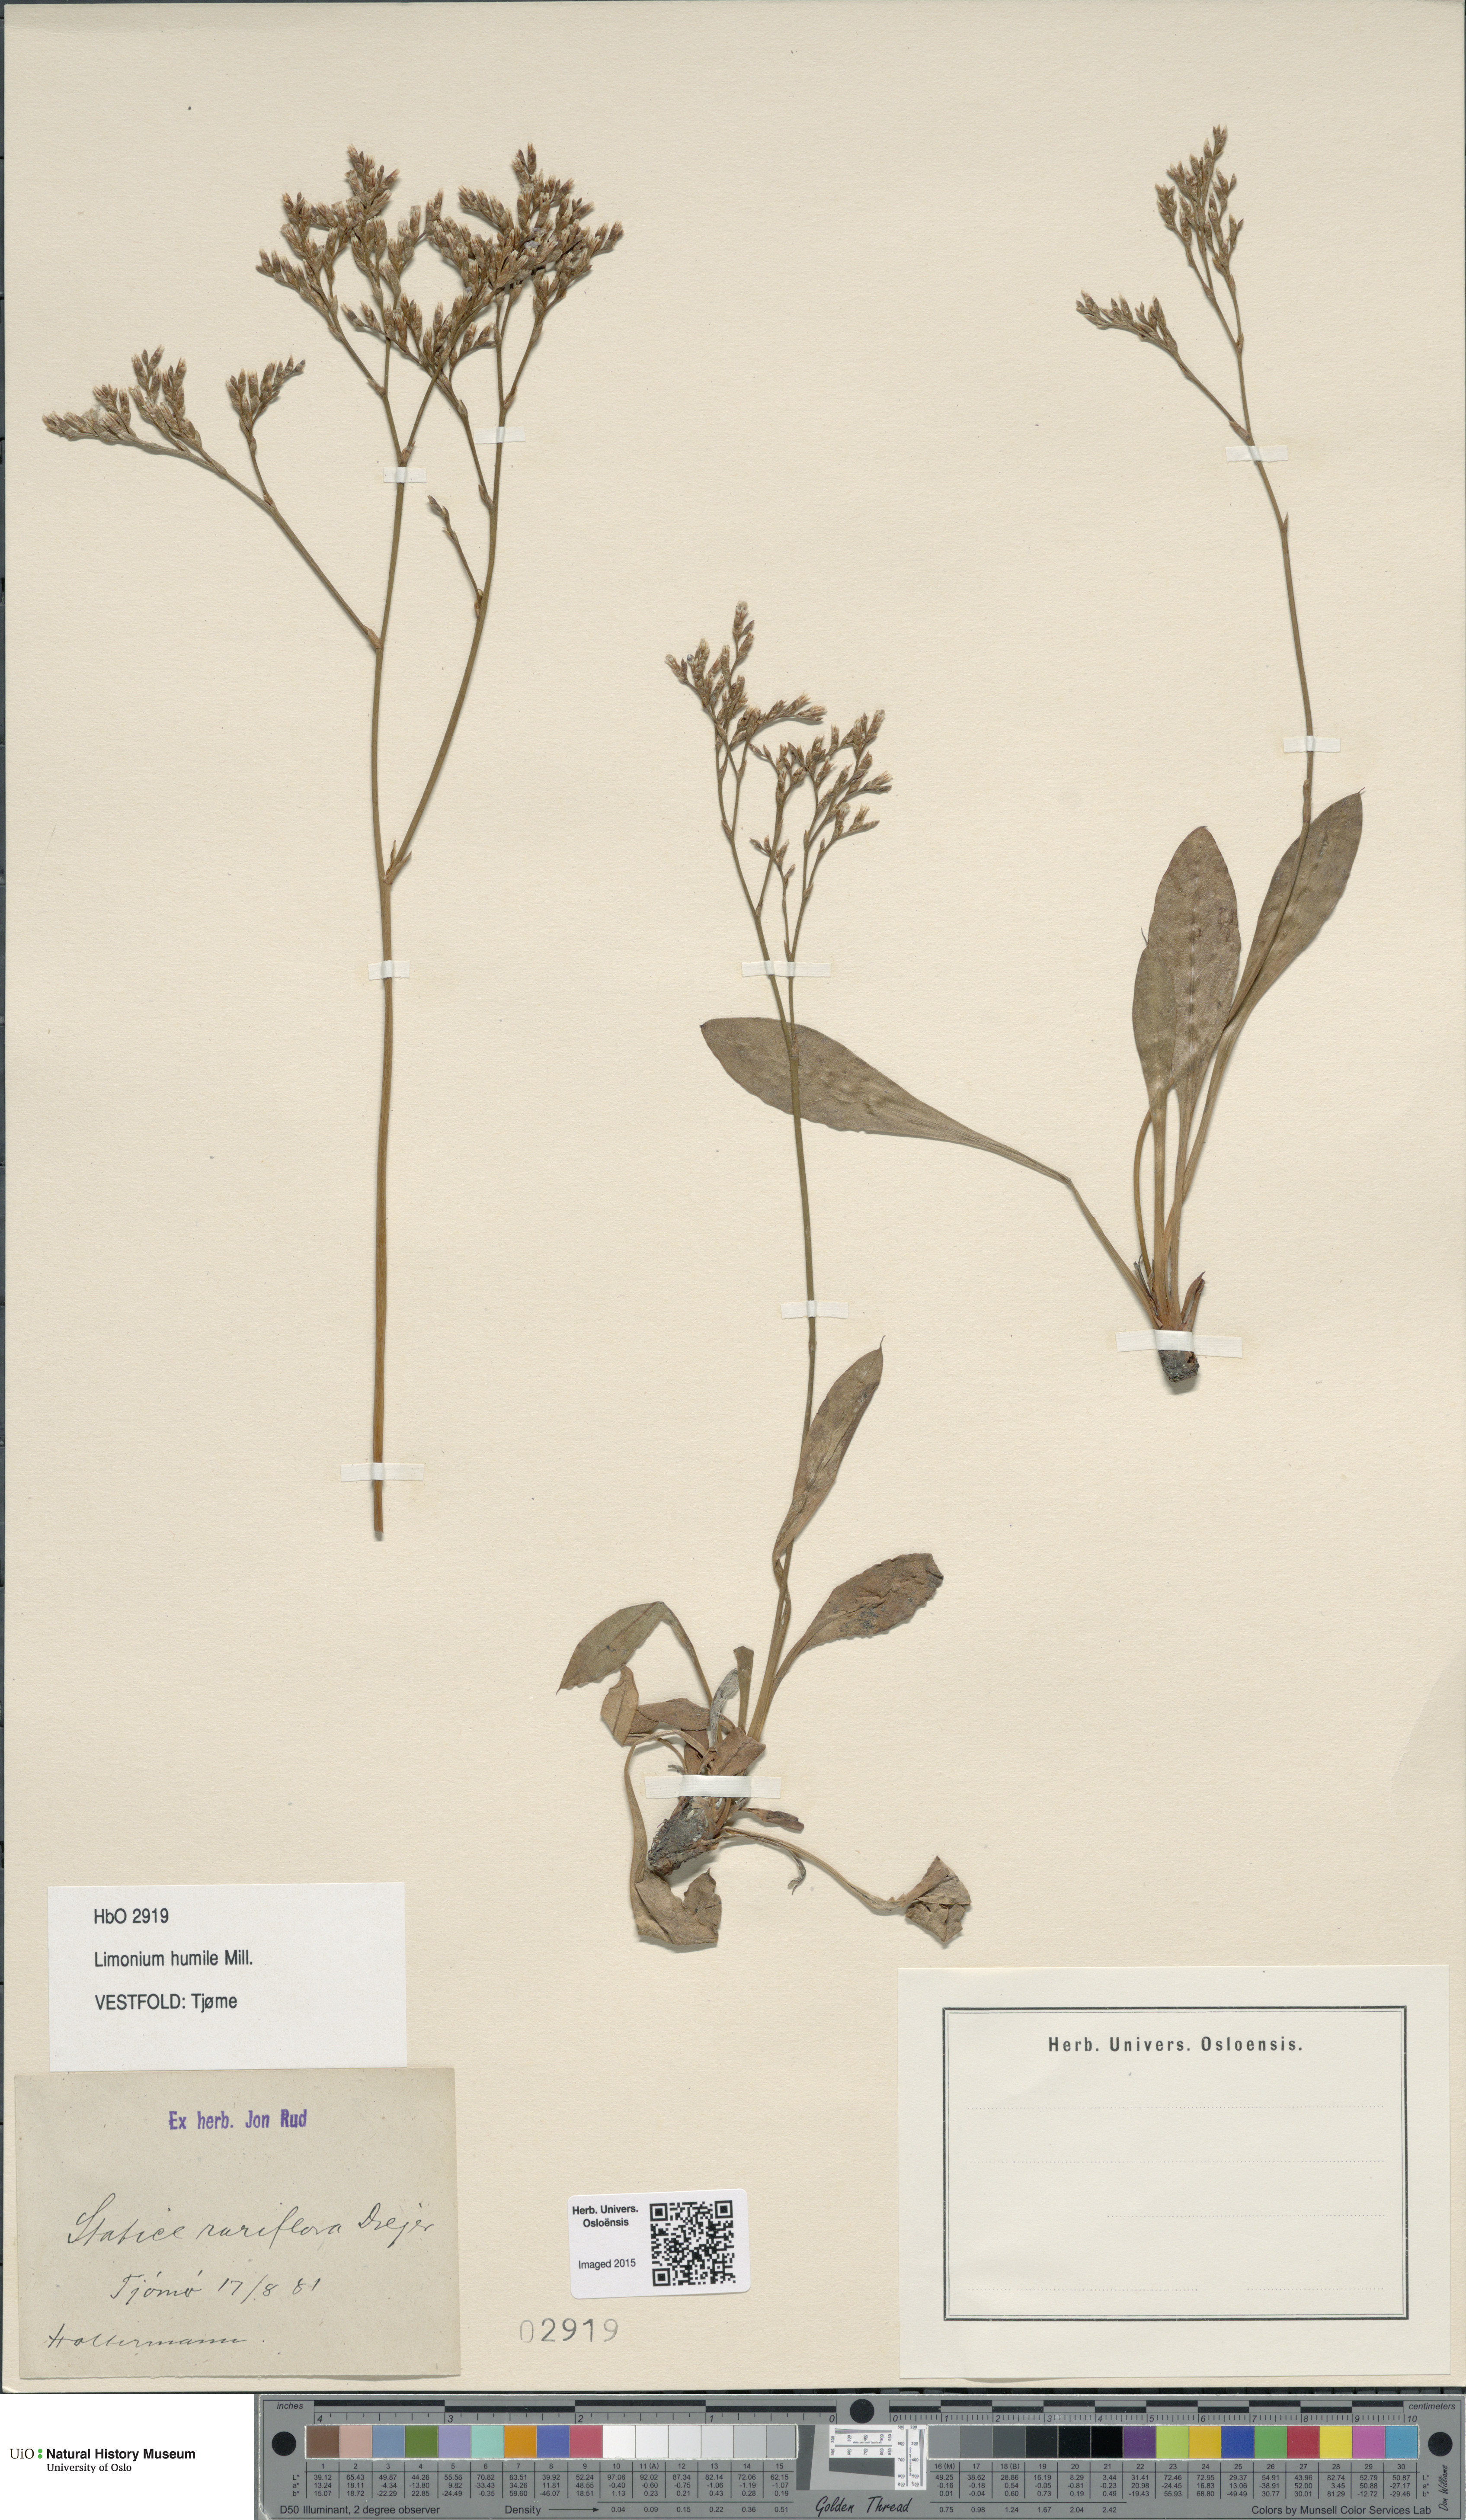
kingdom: Plantae
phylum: Tracheophyta
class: Magnoliopsida
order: Caryophyllales
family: Plumbaginaceae
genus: Limonium
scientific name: Limonium humile
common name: Lax-flowered sea-lavender
